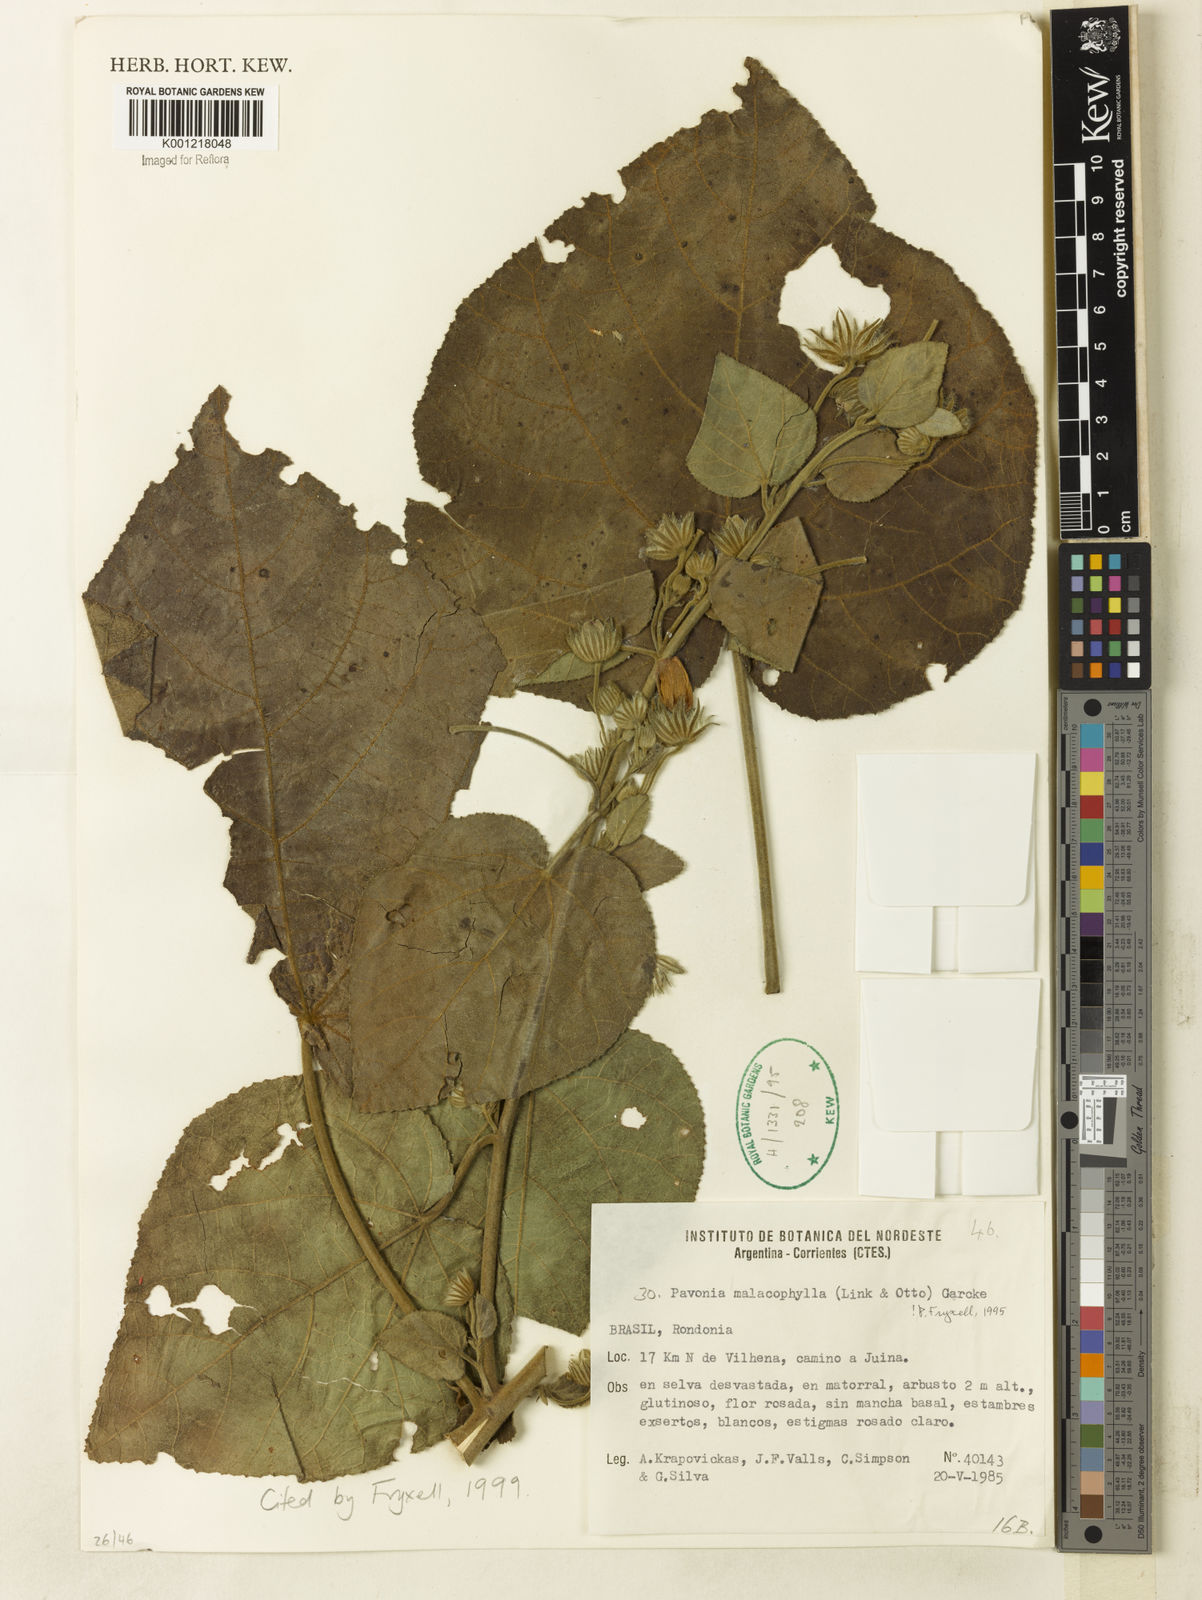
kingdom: Plantae
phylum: Tracheophyta
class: Magnoliopsida
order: Malvales
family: Malvaceae
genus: Pavonia
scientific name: Pavonia malacophylla
